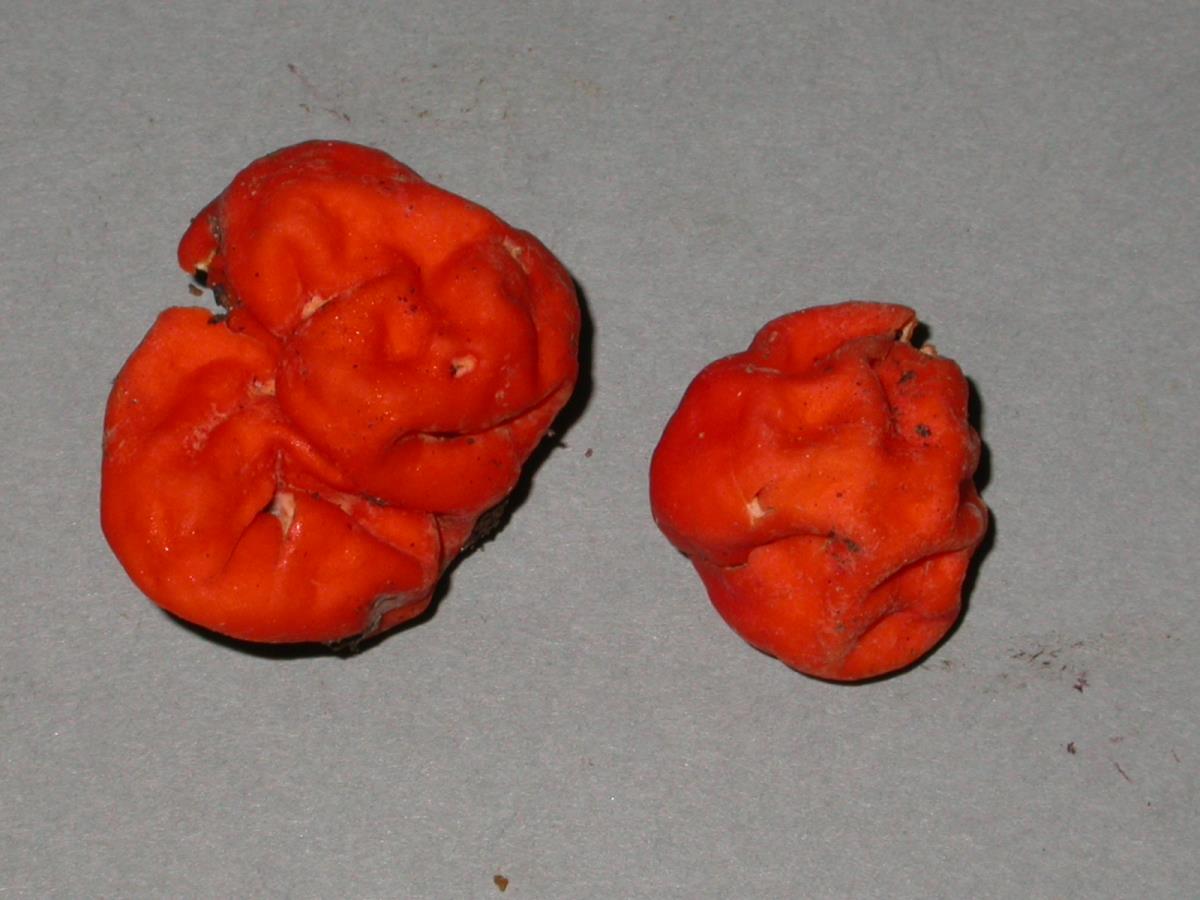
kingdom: Fungi
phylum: Ascomycota
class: Pezizomycetes
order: Pezizales
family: Pyronemataceae
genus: Paurocotylis
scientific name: Paurocotylis pila
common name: Scarlet berry truffle
